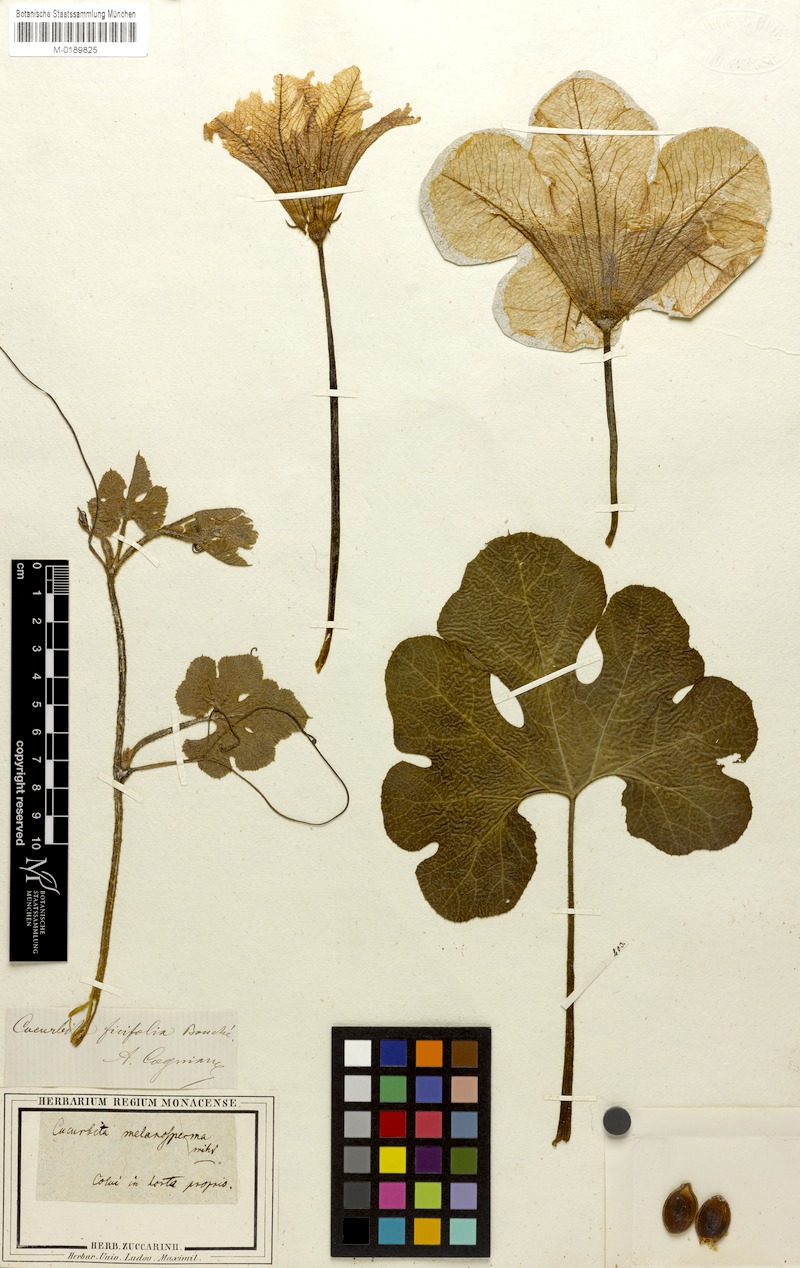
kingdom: Plantae
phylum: Tracheophyta
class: Magnoliopsida
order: Cucurbitales
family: Cucurbitaceae
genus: Cucurbita
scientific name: Cucurbita ficifolia
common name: Figleaf gourd
